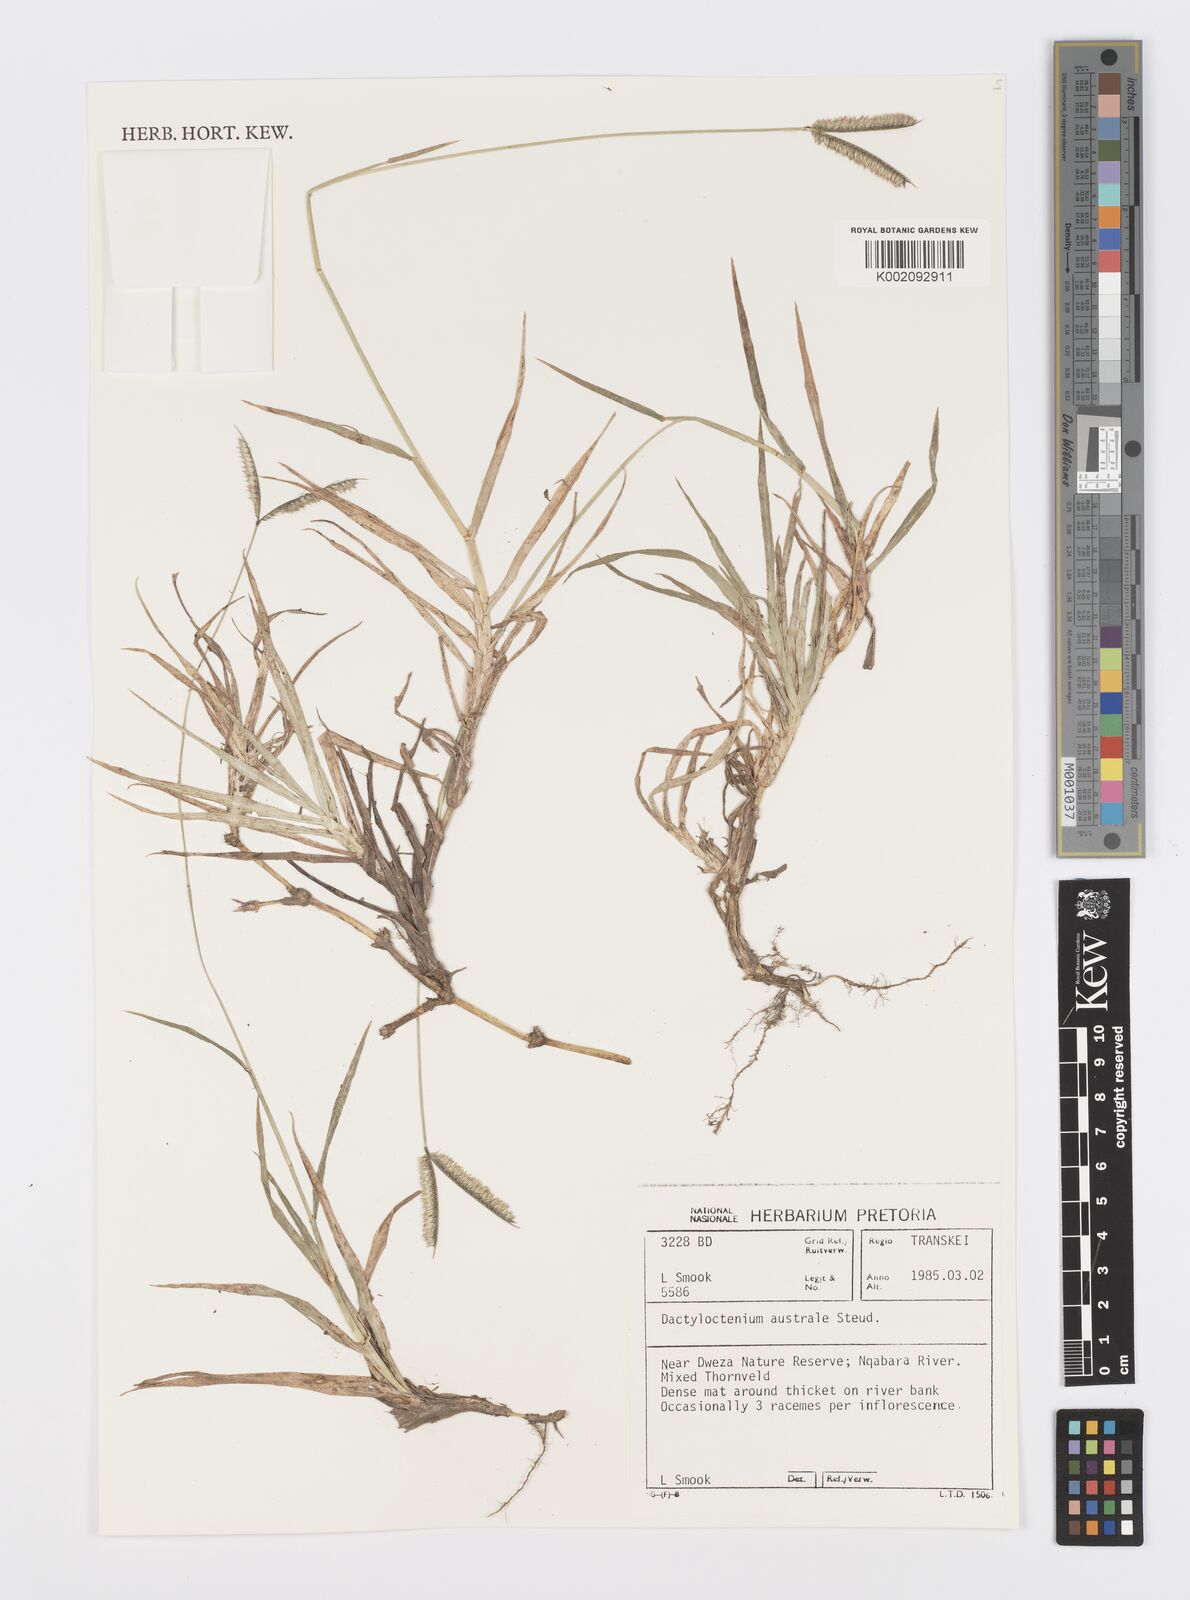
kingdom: Plantae
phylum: Tracheophyta
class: Liliopsida
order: Poales
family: Poaceae
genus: Dactyloctenium
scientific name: Dactyloctenium australe
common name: Durban grass
